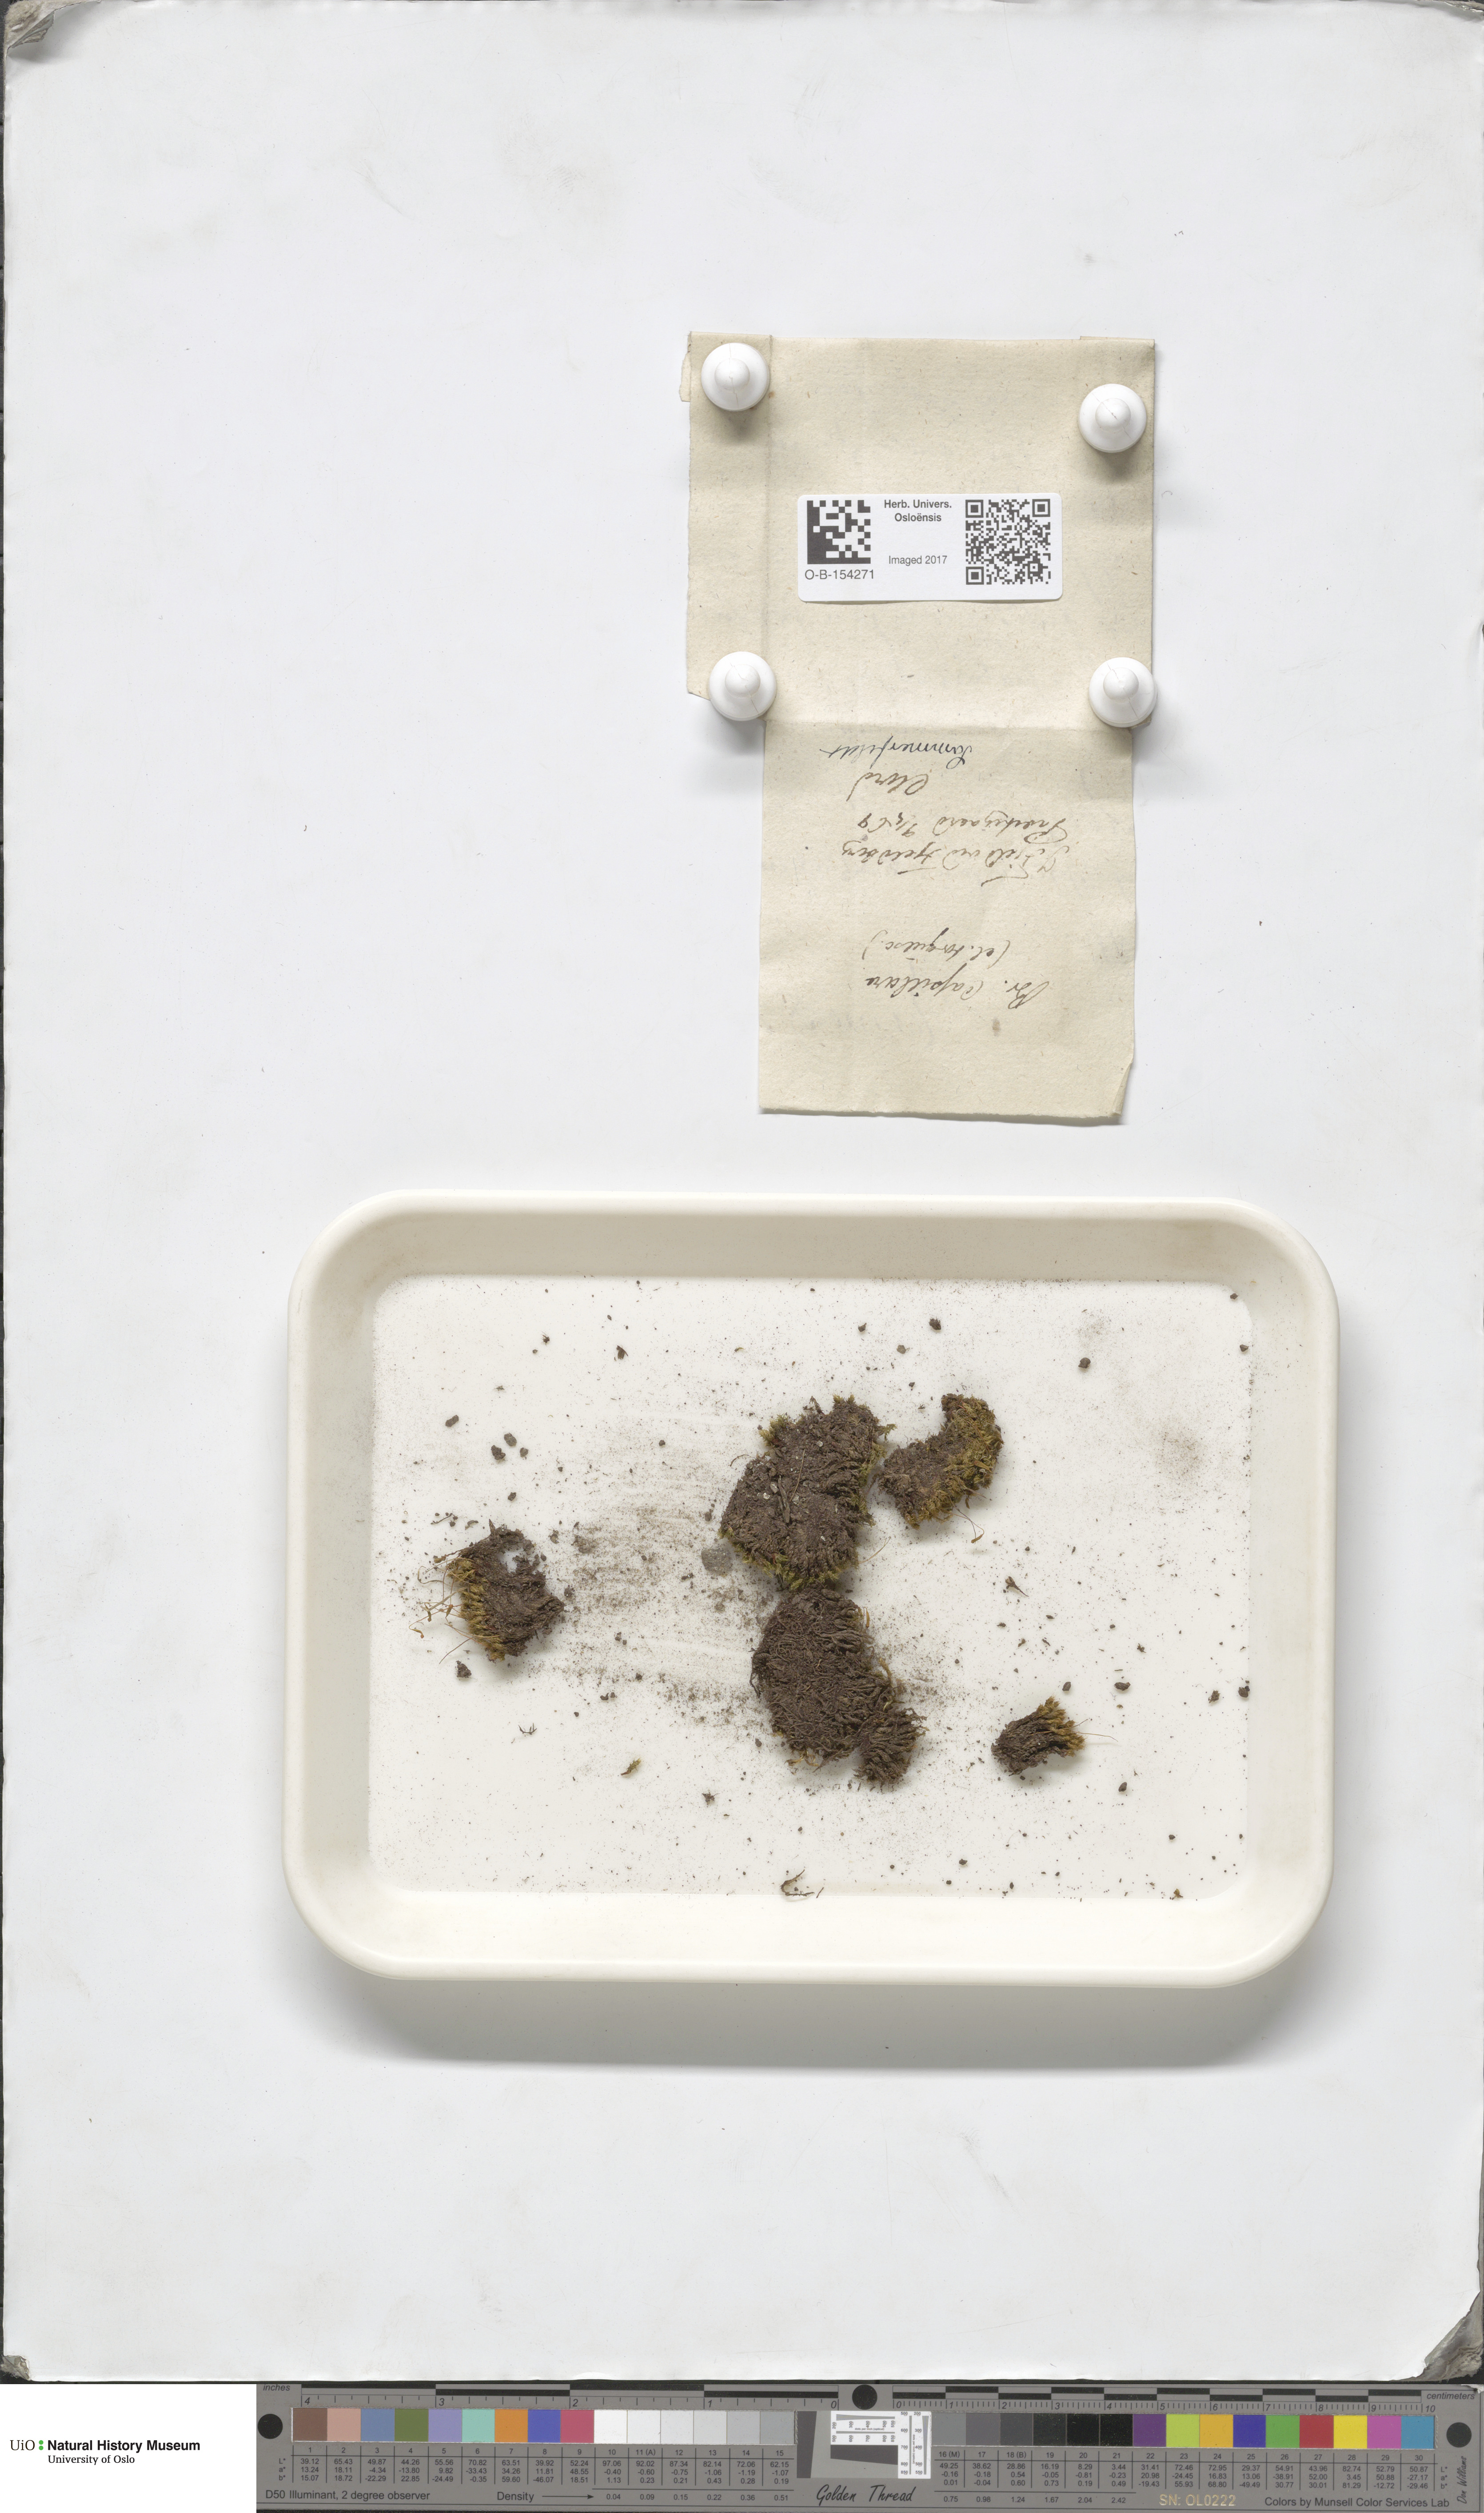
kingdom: Plantae
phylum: Bryophyta
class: Bryopsida
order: Bryales
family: Bryaceae
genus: Rosulabryum
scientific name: Rosulabryum capillare
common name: Capillary thread-moss
